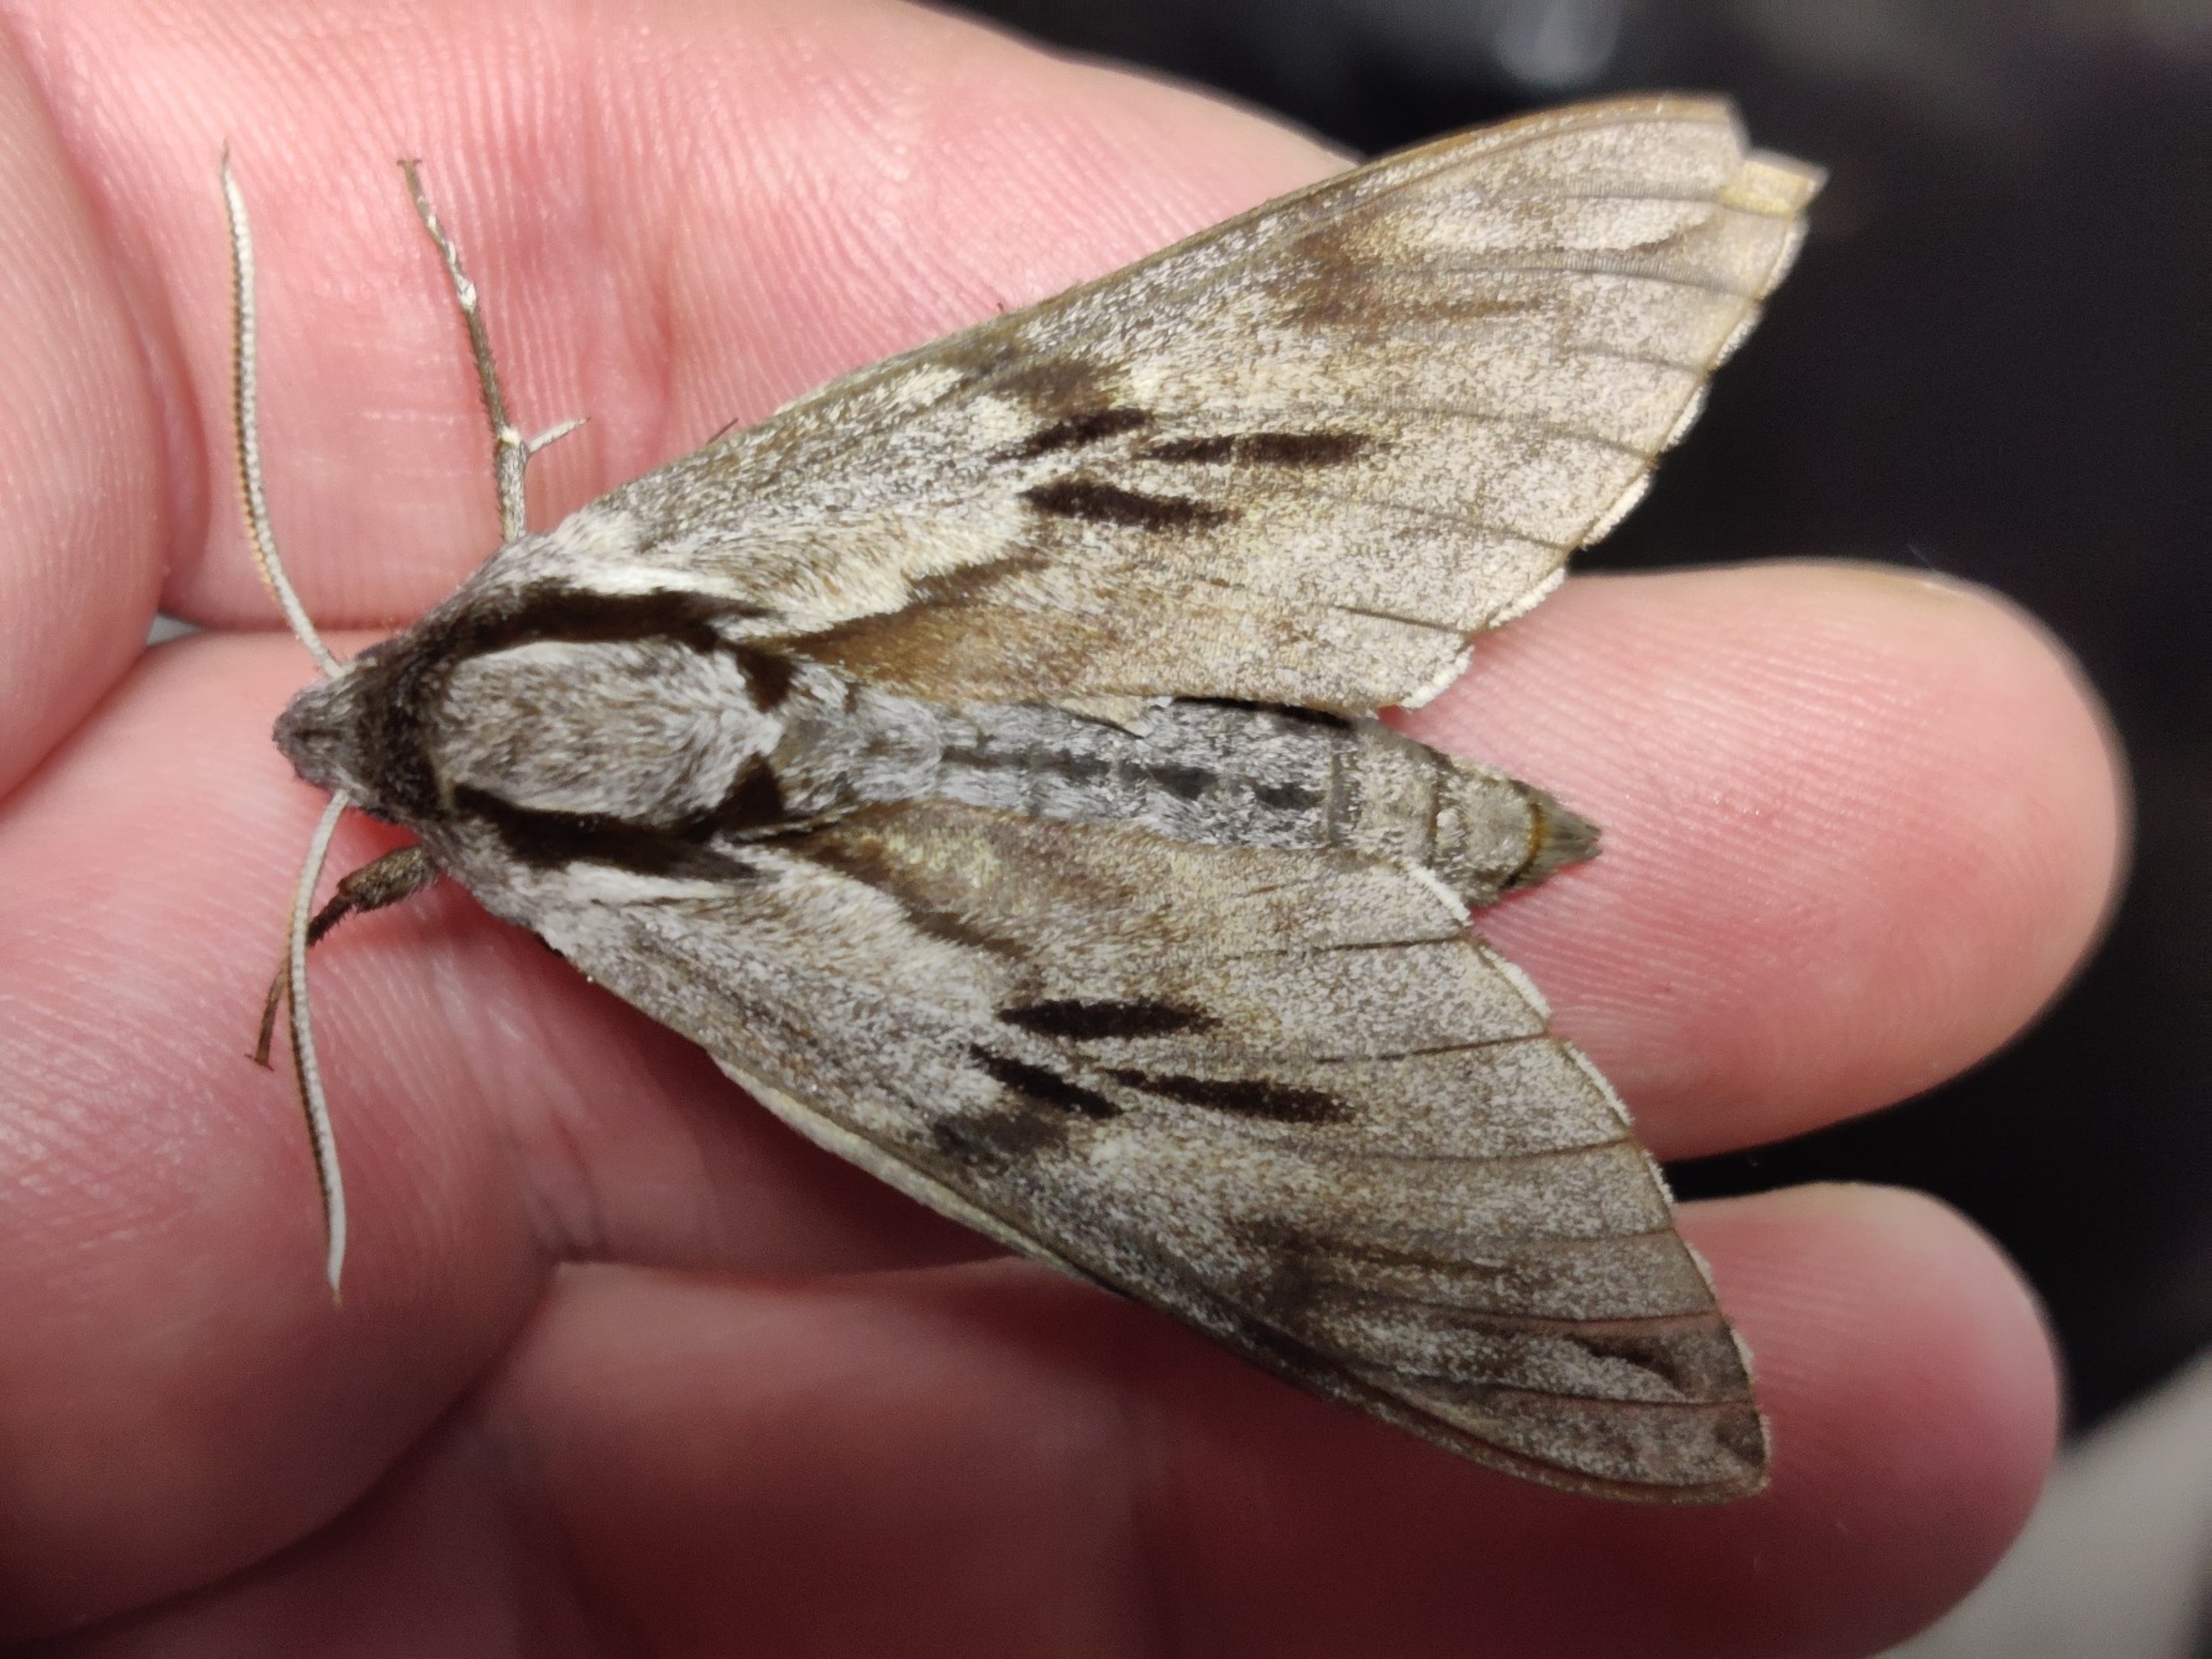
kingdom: Animalia
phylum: Arthropoda
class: Insecta
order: Lepidoptera
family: Sphingidae
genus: Sphinx
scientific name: Sphinx pinastri
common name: Fyrresværmer
